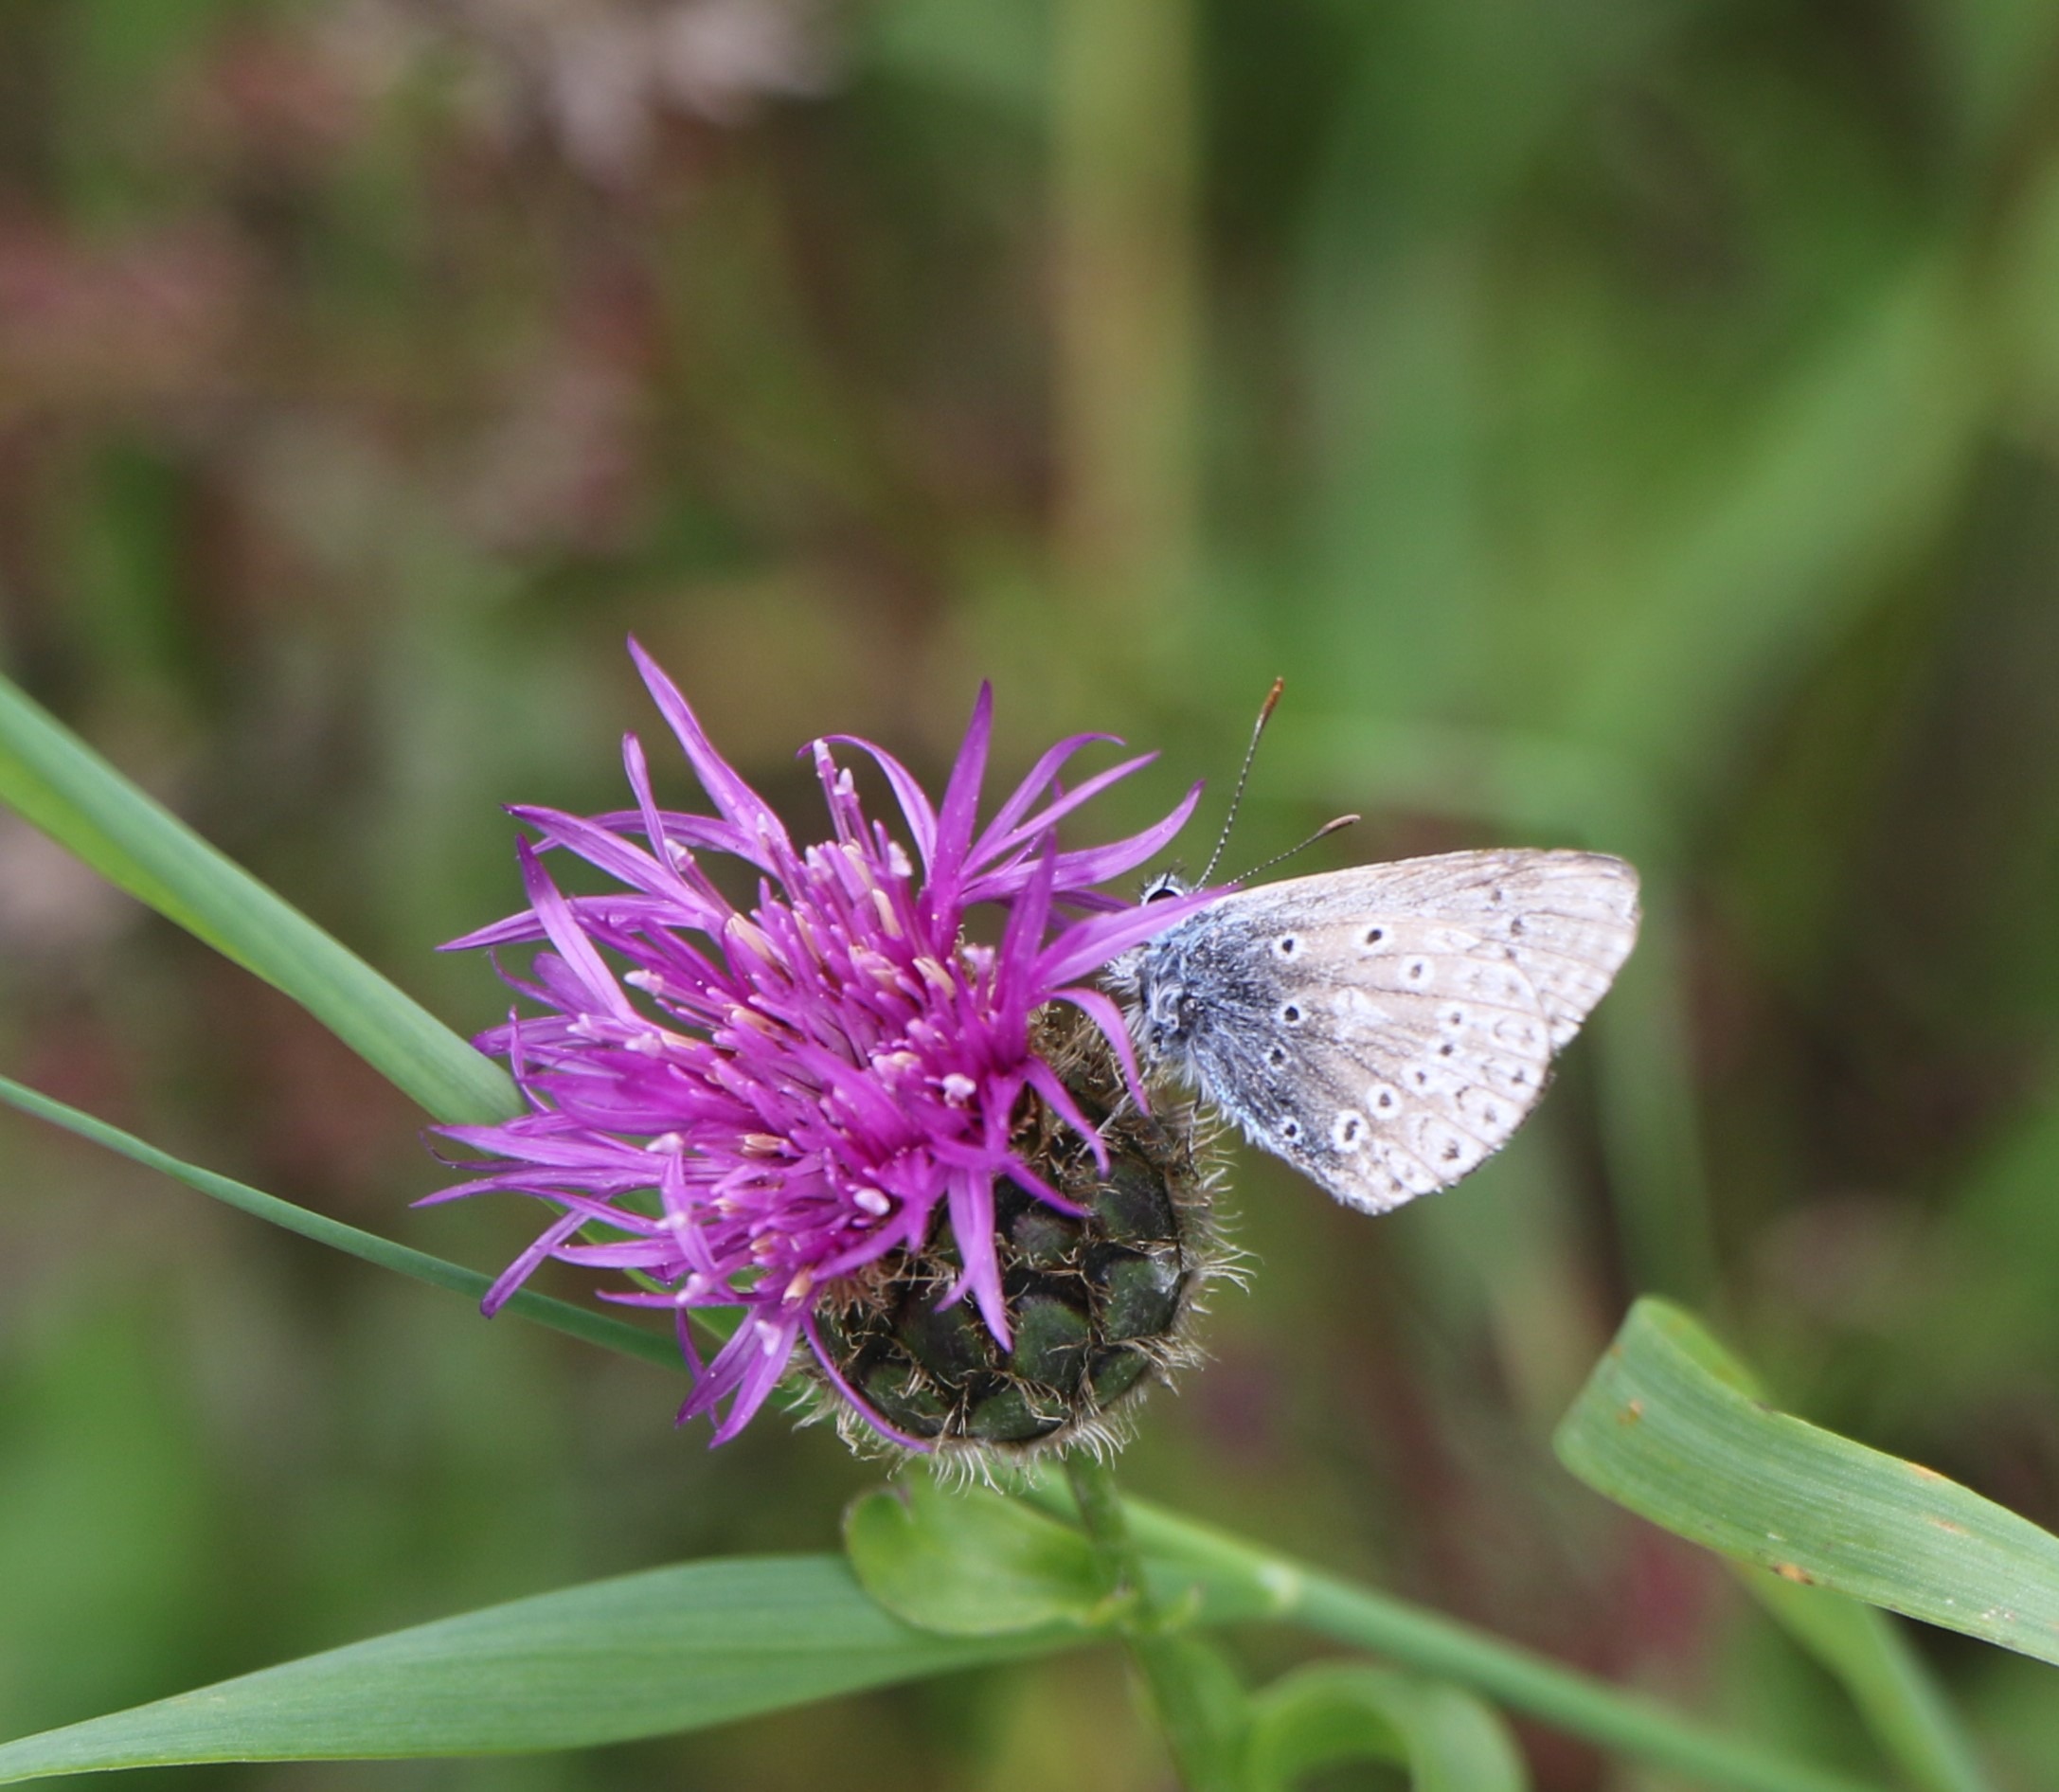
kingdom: Animalia
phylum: Arthropoda
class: Insecta
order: Lepidoptera
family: Lycaenidae
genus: Polyommatus
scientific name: Polyommatus icarus
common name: Almindelig blåfugl
